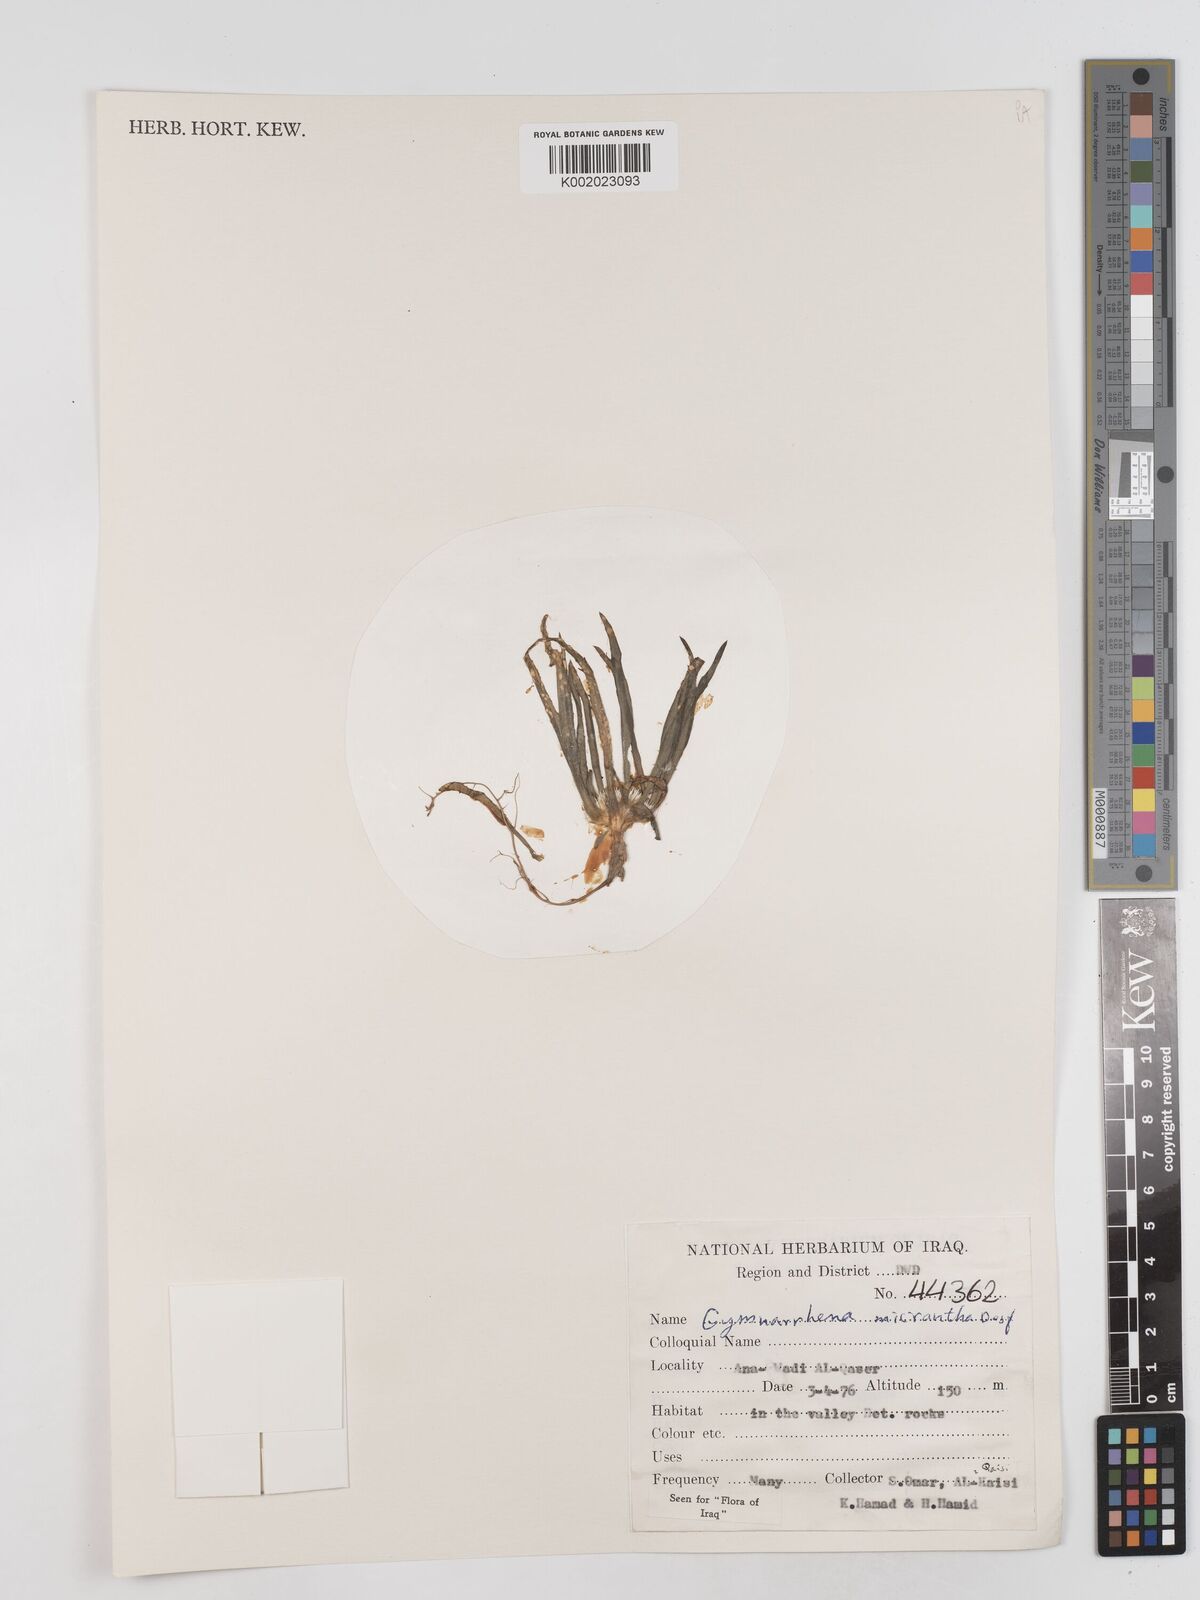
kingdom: Plantae
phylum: Tracheophyta
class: Magnoliopsida
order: Asterales
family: Asteraceae
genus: Gymnarrhena
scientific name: Gymnarrhena micrantha
